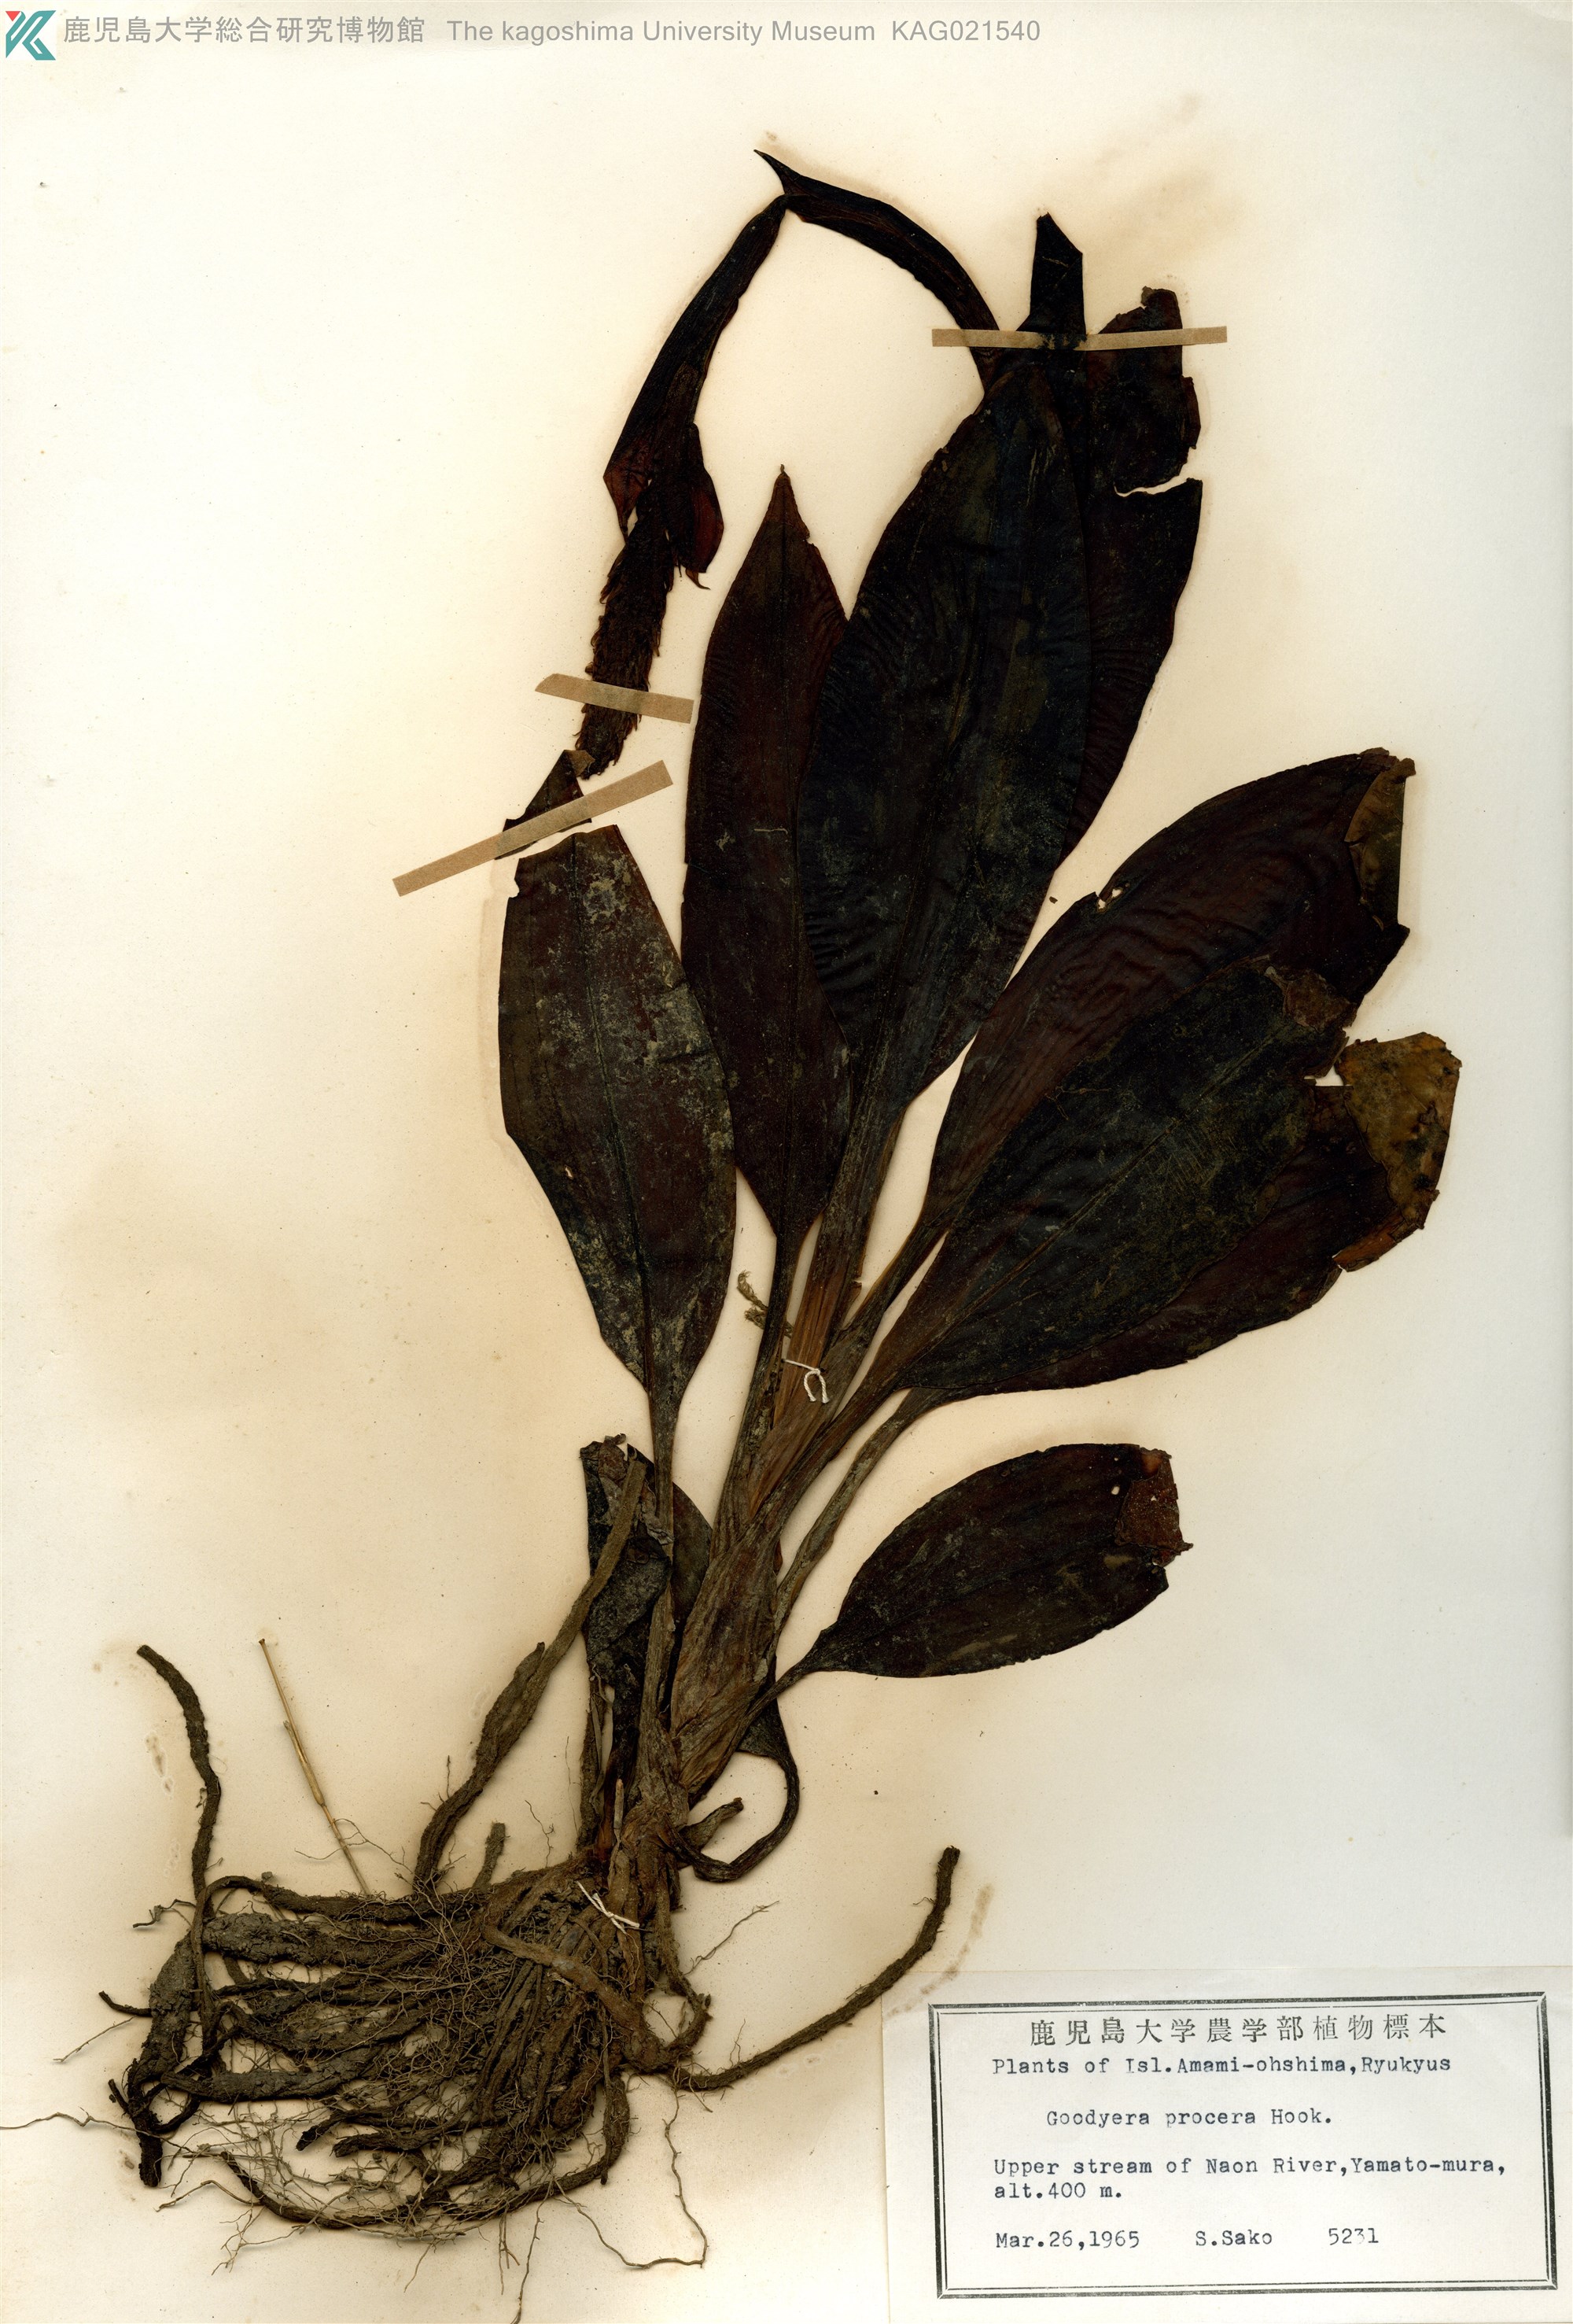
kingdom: Plantae
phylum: Tracheophyta
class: Liliopsida
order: Asparagales
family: Orchidaceae
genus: Goodyera
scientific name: Goodyera procera
